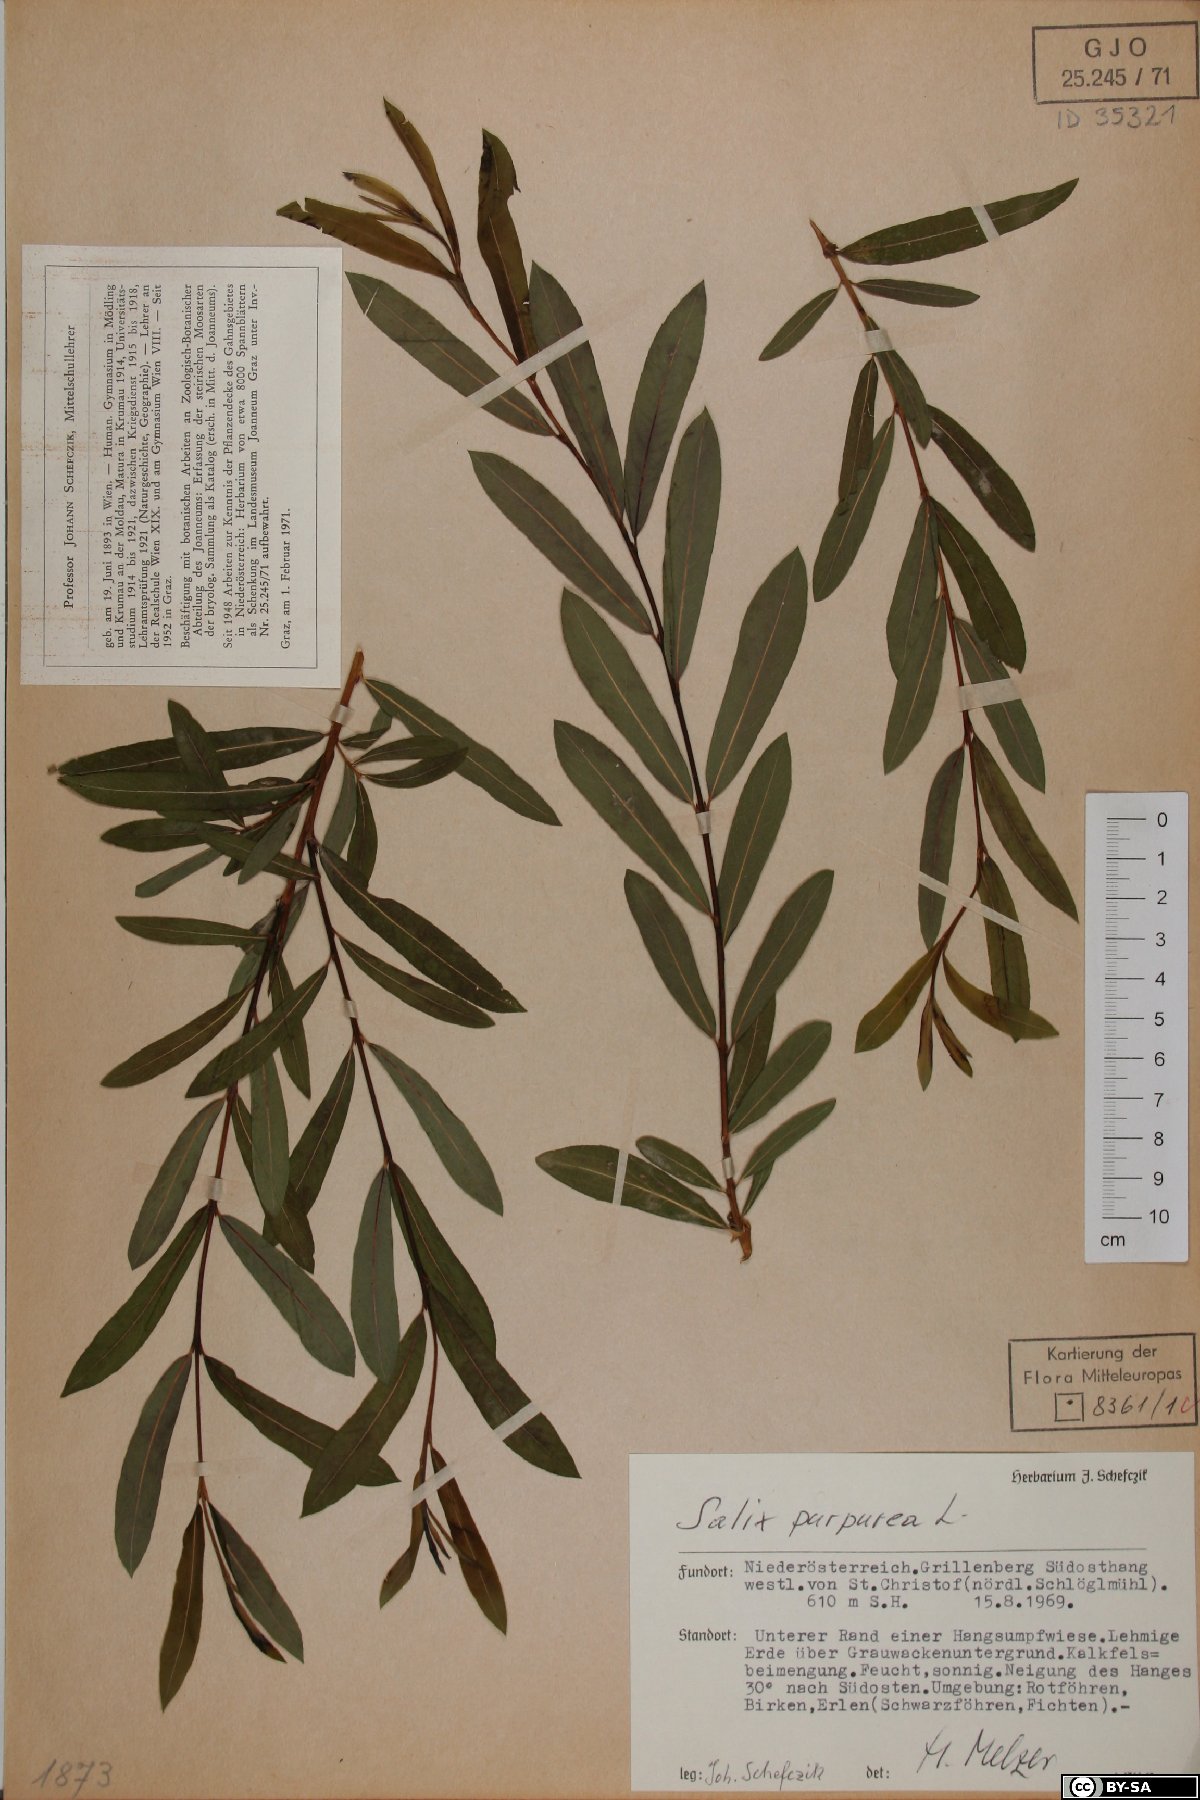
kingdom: Plantae
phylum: Tracheophyta
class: Magnoliopsida
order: Malpighiales
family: Salicaceae
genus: Salix
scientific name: Salix purpurea
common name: Purple willow
